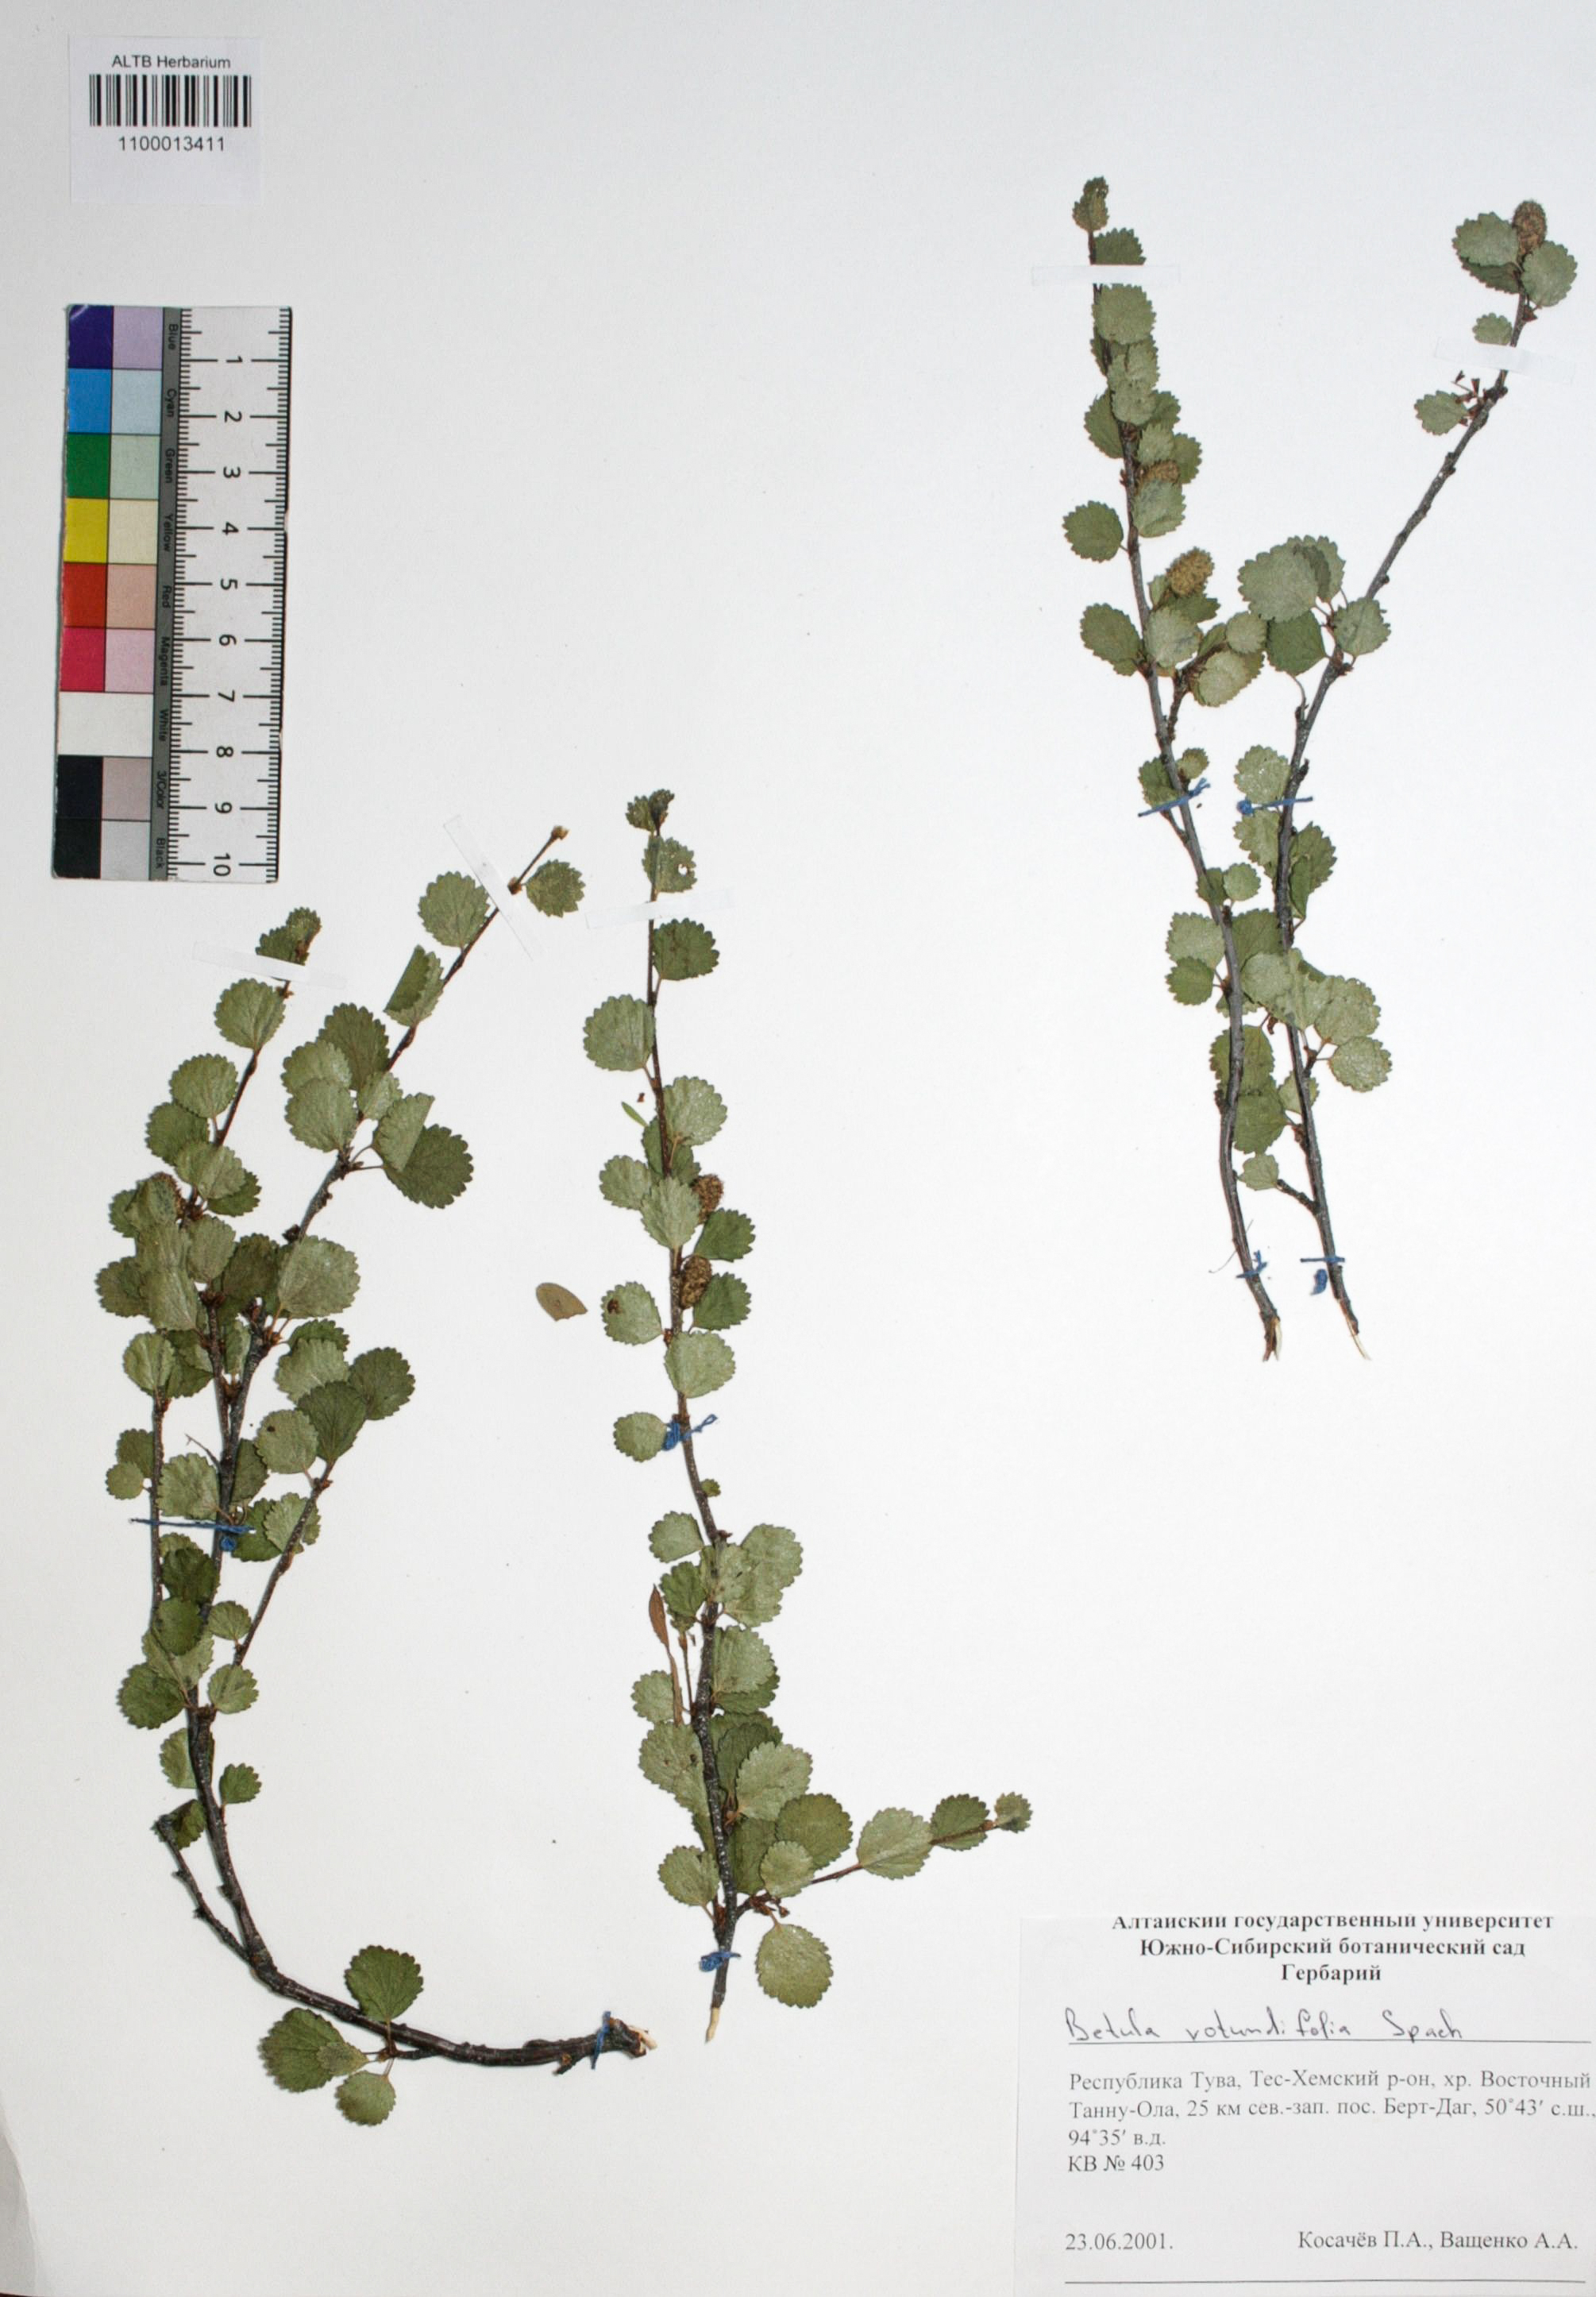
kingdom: Plantae
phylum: Tracheophyta
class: Magnoliopsida
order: Fagales
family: Betulaceae
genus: Betula
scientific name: Betula glandulosa
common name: Dwarf birch
